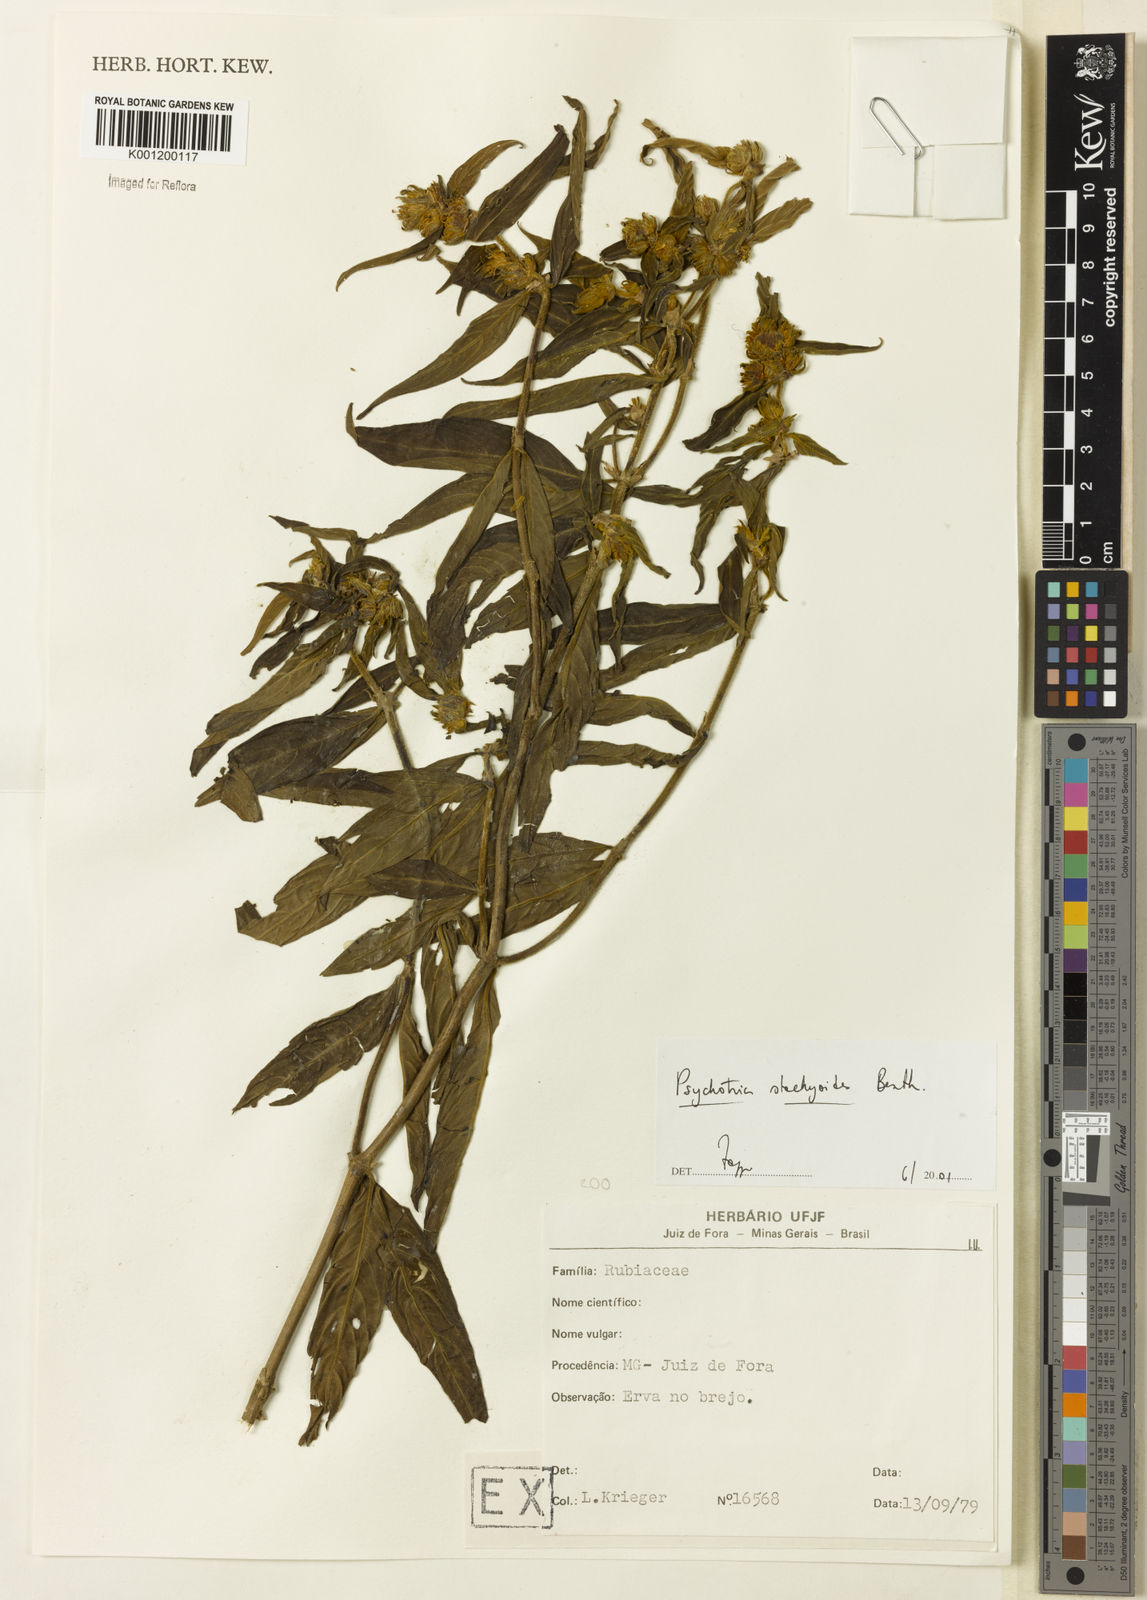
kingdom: Plantae
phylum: Tracheophyta
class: Magnoliopsida
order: Gentianales
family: Rubiaceae
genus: Psychotria
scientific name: Psychotria stachyoides
